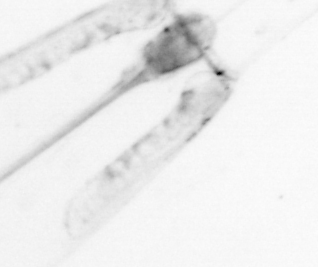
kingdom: Animalia
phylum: Chaetognatha
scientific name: Chaetognatha
